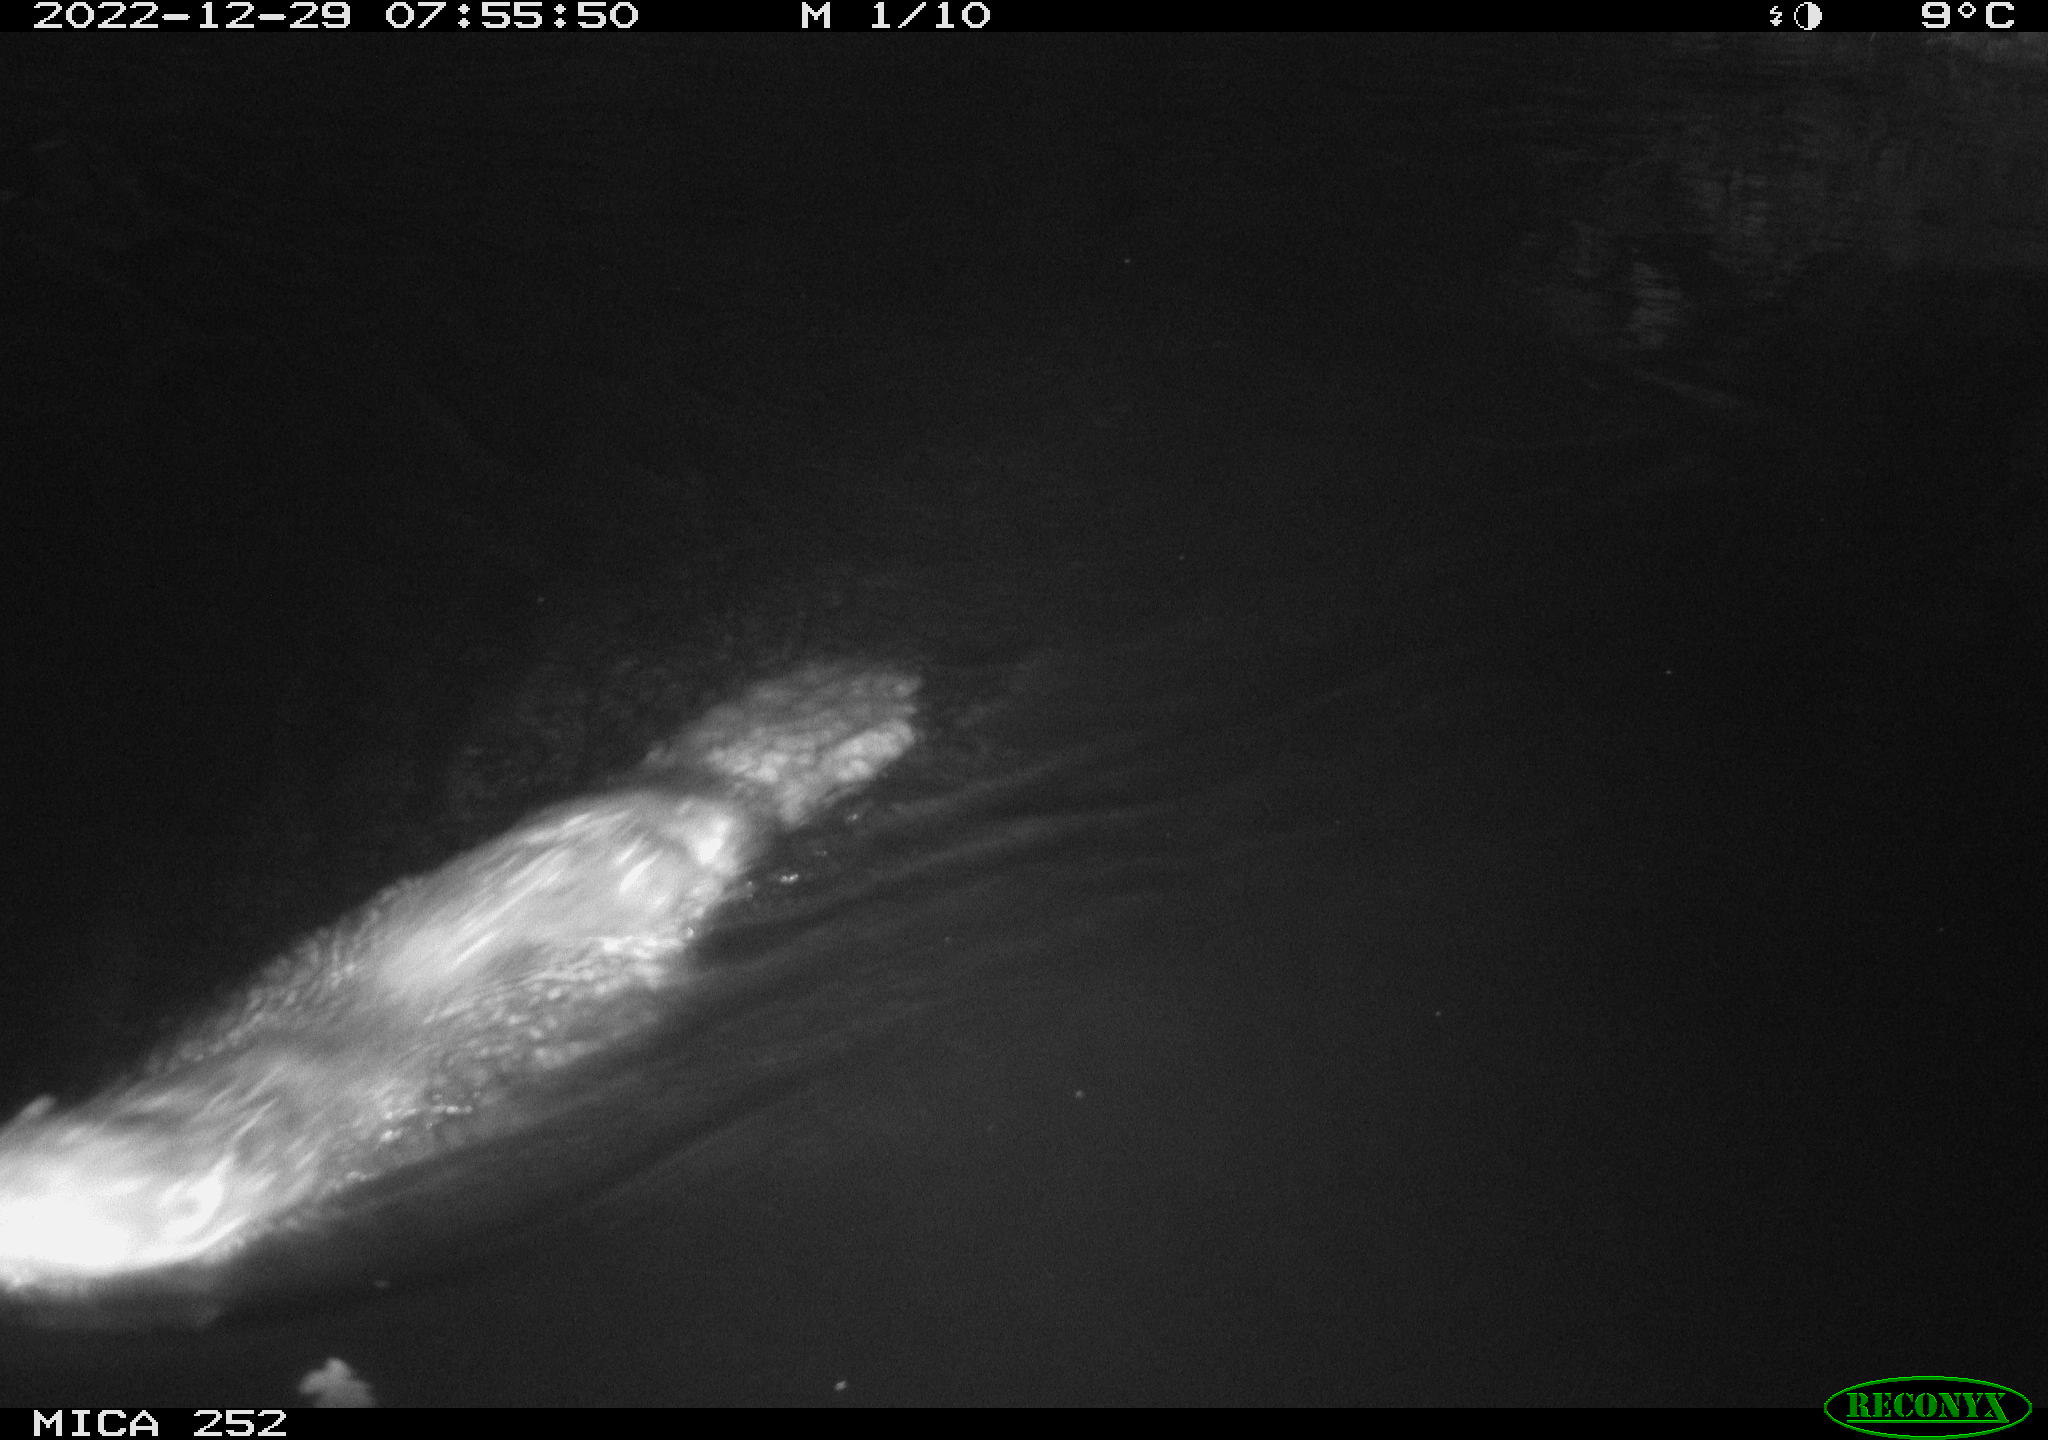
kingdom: Animalia
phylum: Chordata
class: Mammalia
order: Rodentia
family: Castoridae
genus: Castor
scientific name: Castor fiber
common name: Eurasian beaver
